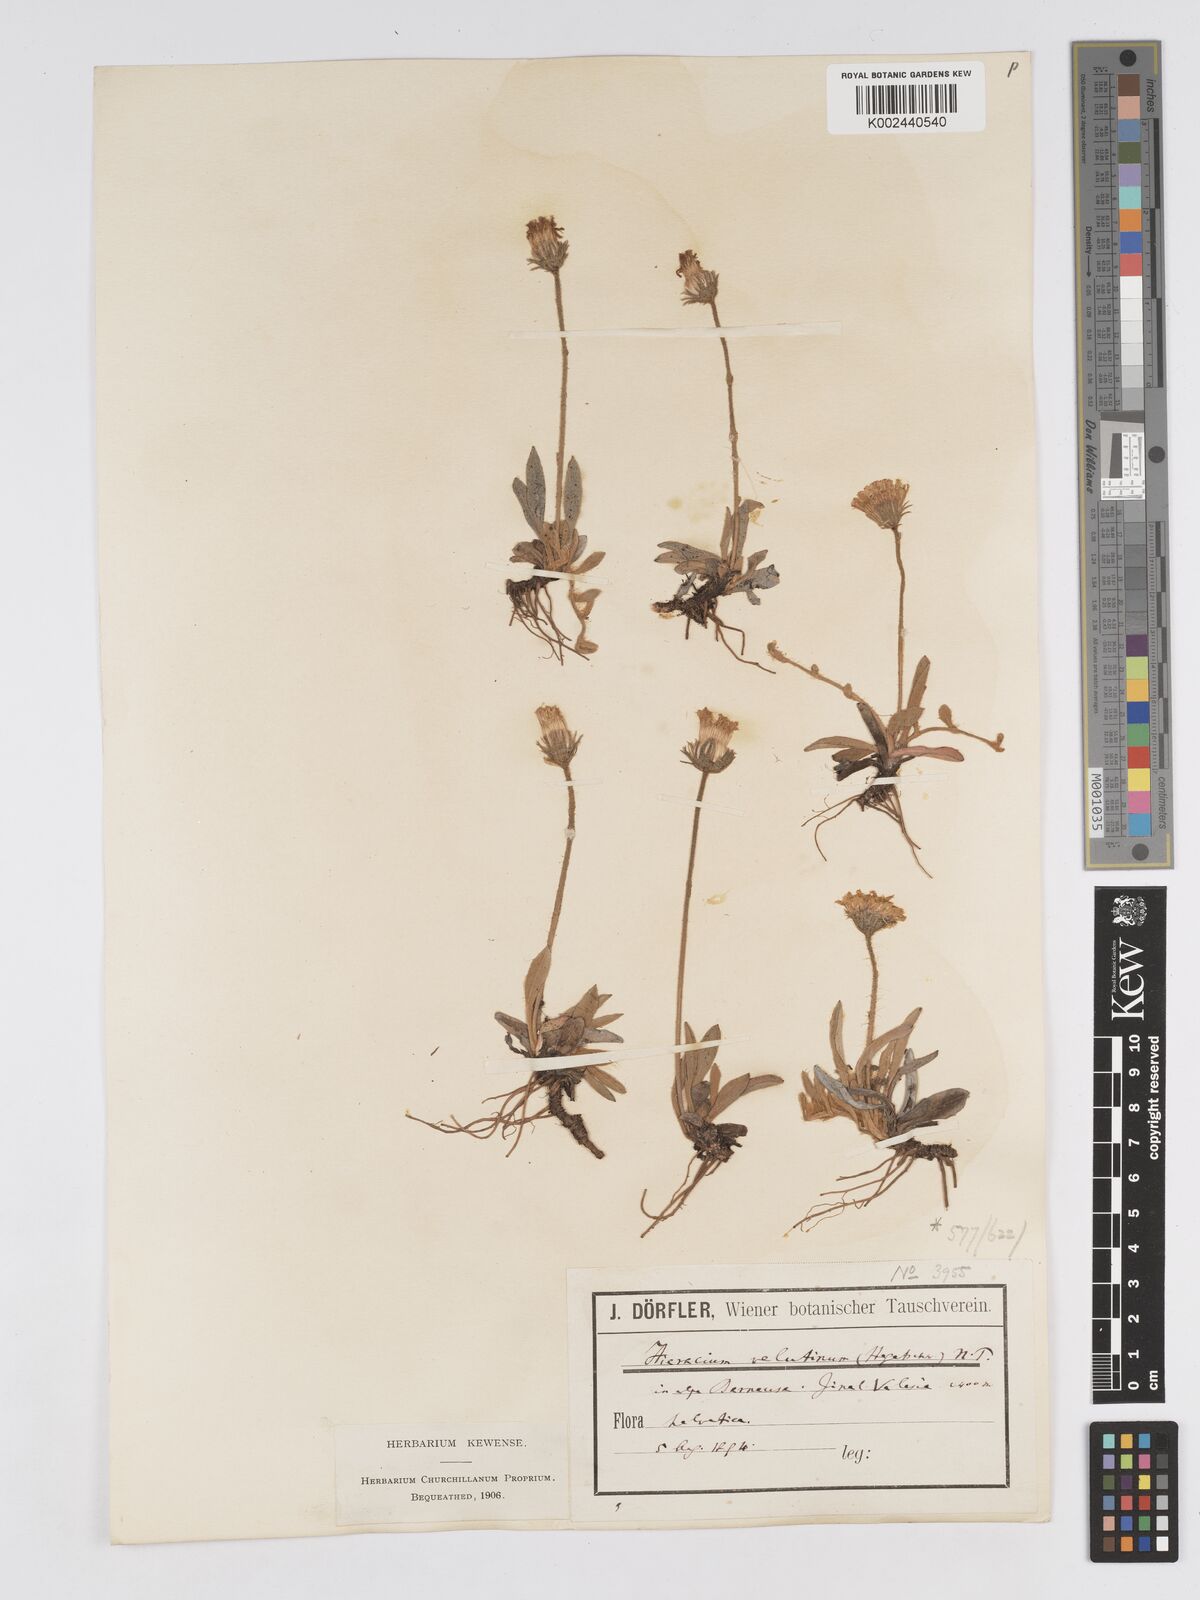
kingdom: Plantae
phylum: Tracheophyta
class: Magnoliopsida
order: Asterales
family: Asteraceae
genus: Pilosella
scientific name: Pilosella velutina
